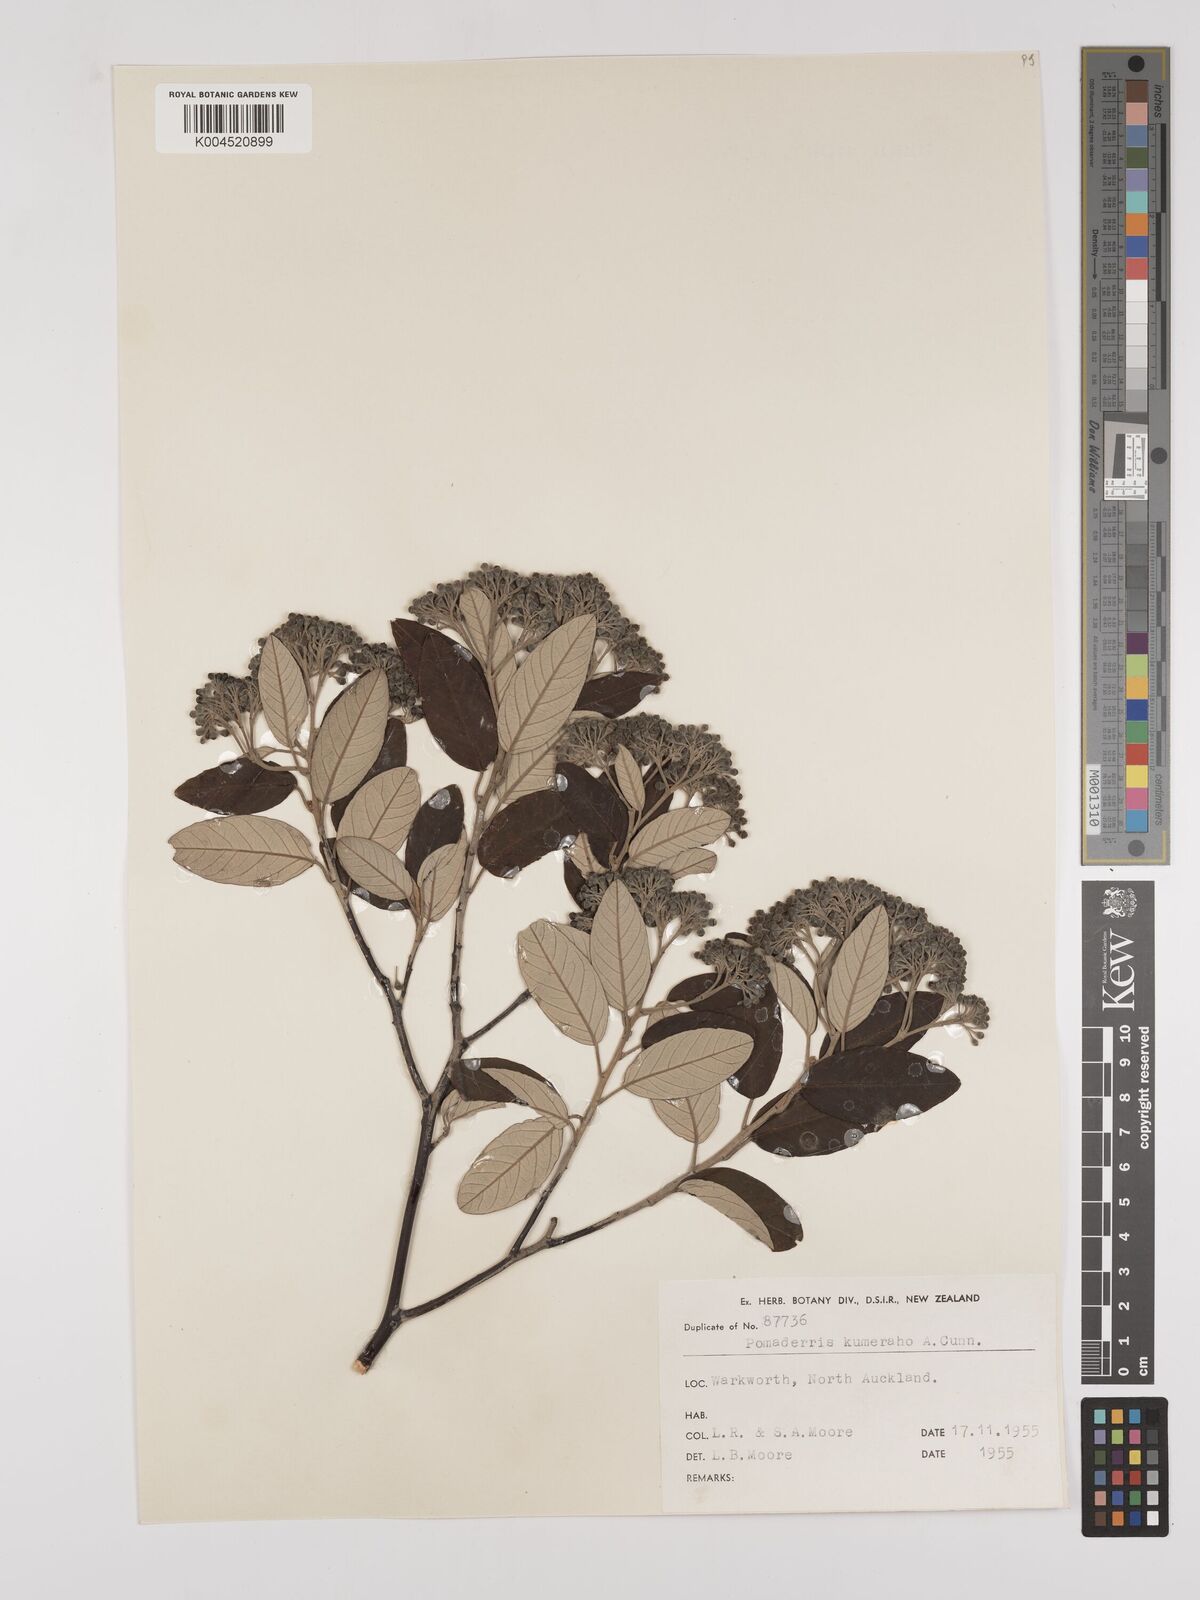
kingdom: Plantae
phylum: Tracheophyta
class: Magnoliopsida
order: Rosales
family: Rhamnaceae
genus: Pomaderris
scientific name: Pomaderris kumeraho
